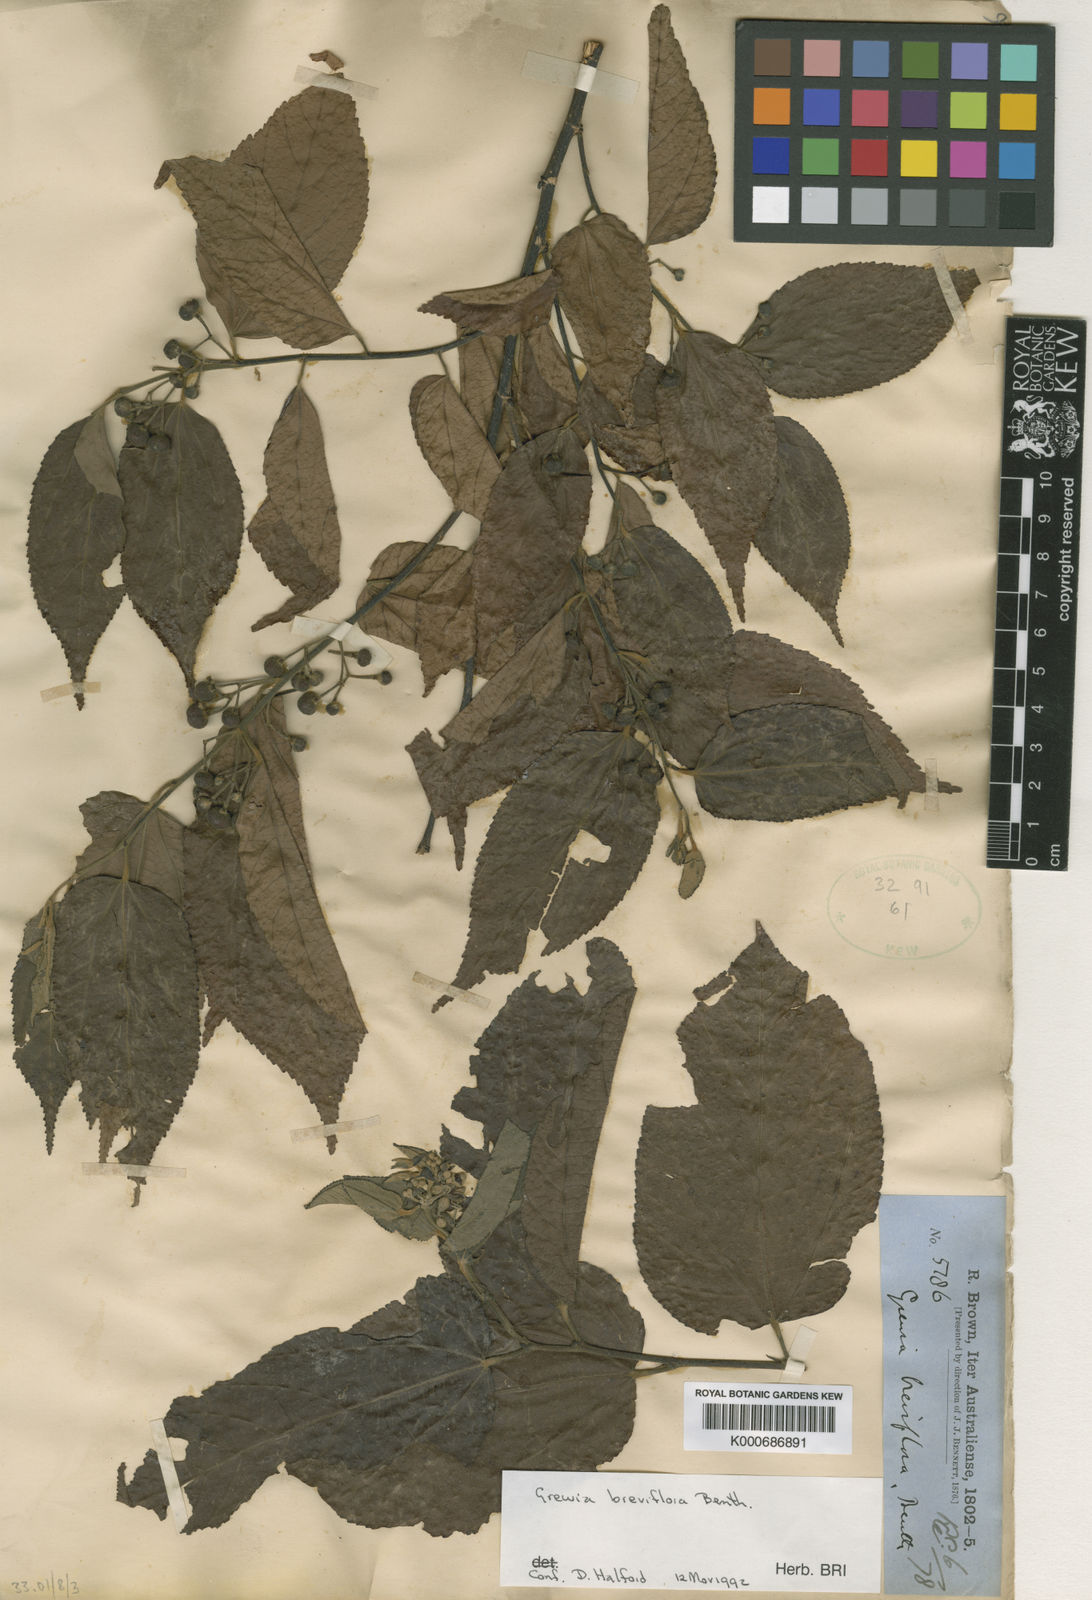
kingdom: Plantae
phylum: Tracheophyta
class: Magnoliopsida
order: Malvales
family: Malvaceae
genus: Grewia
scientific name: Grewia breviflora
